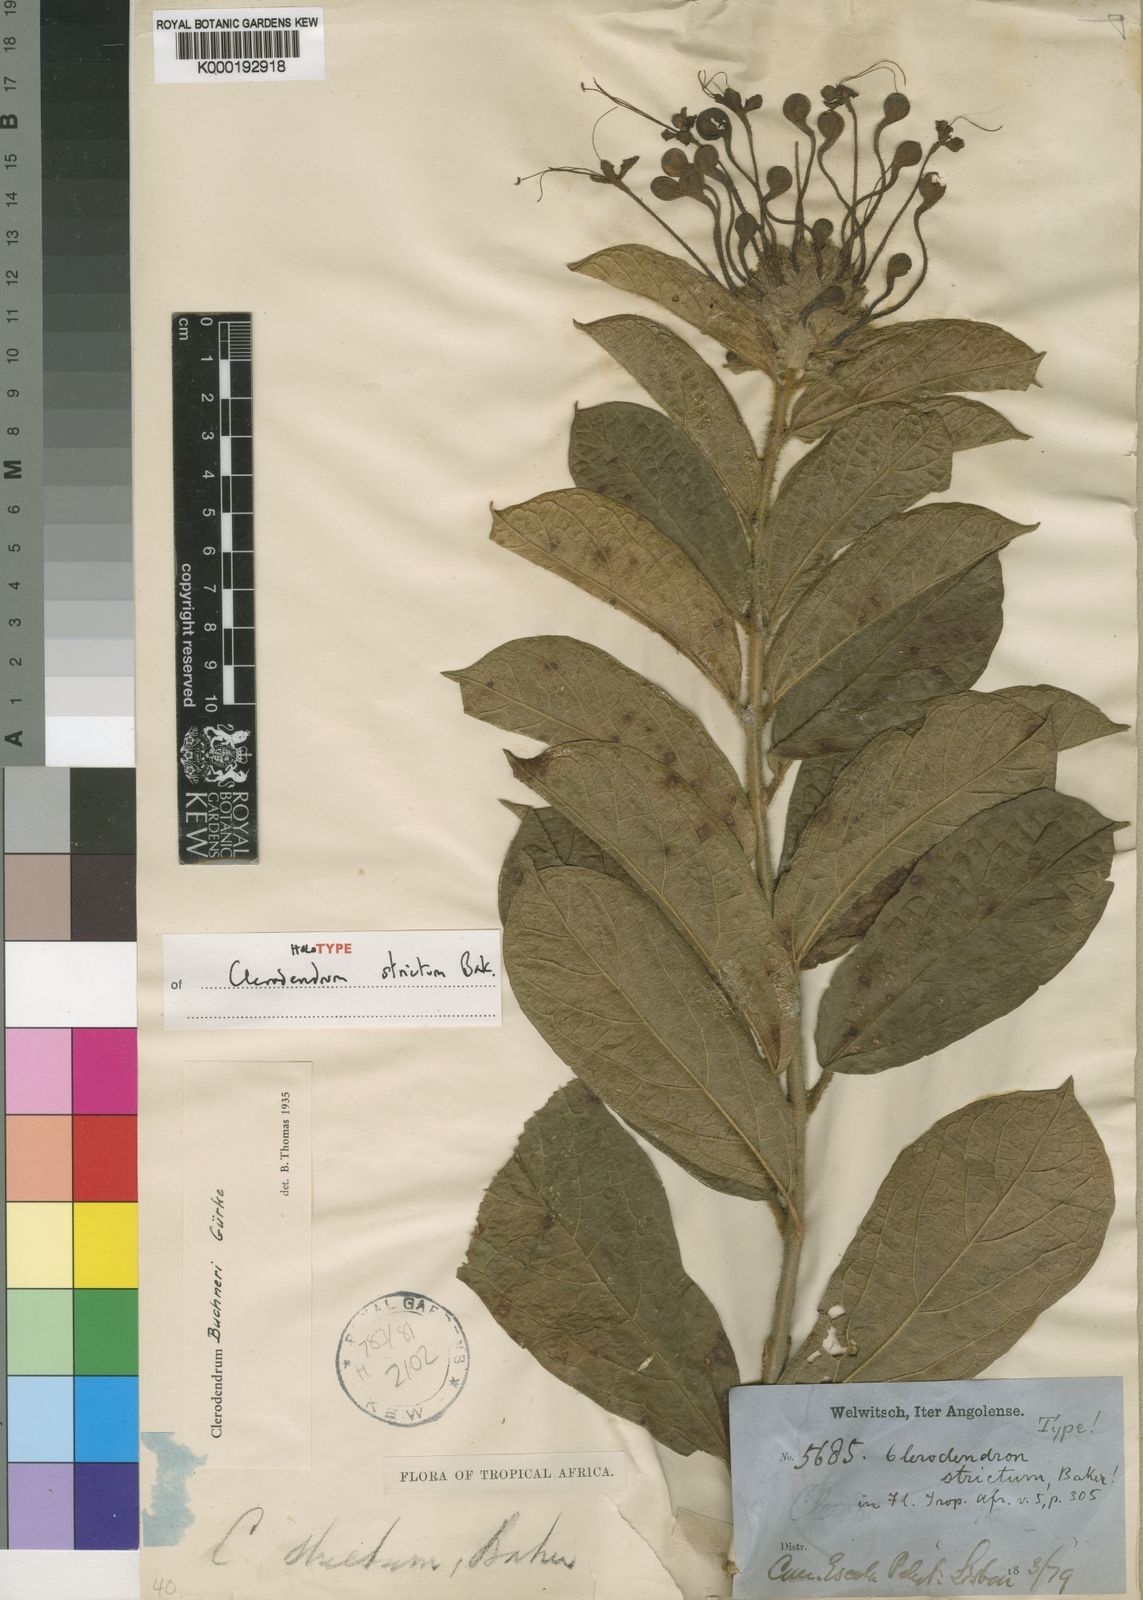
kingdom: Plantae
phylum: Tracheophyta
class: Magnoliopsida
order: Lamiales
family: Lamiaceae
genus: Clerodendrum
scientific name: Clerodendrum
